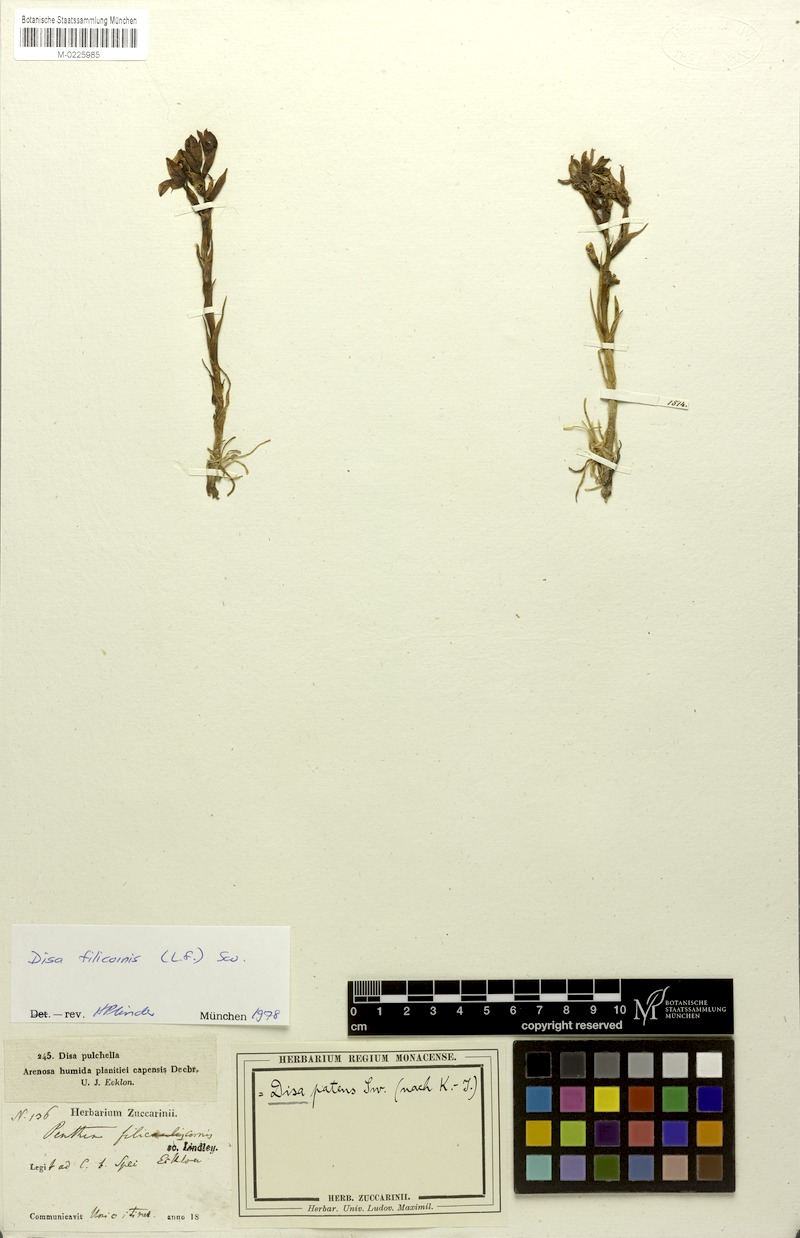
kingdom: Plantae
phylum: Tracheophyta
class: Liliopsida
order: Asparagales
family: Orchidaceae
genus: Disa
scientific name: Disa filicornis
